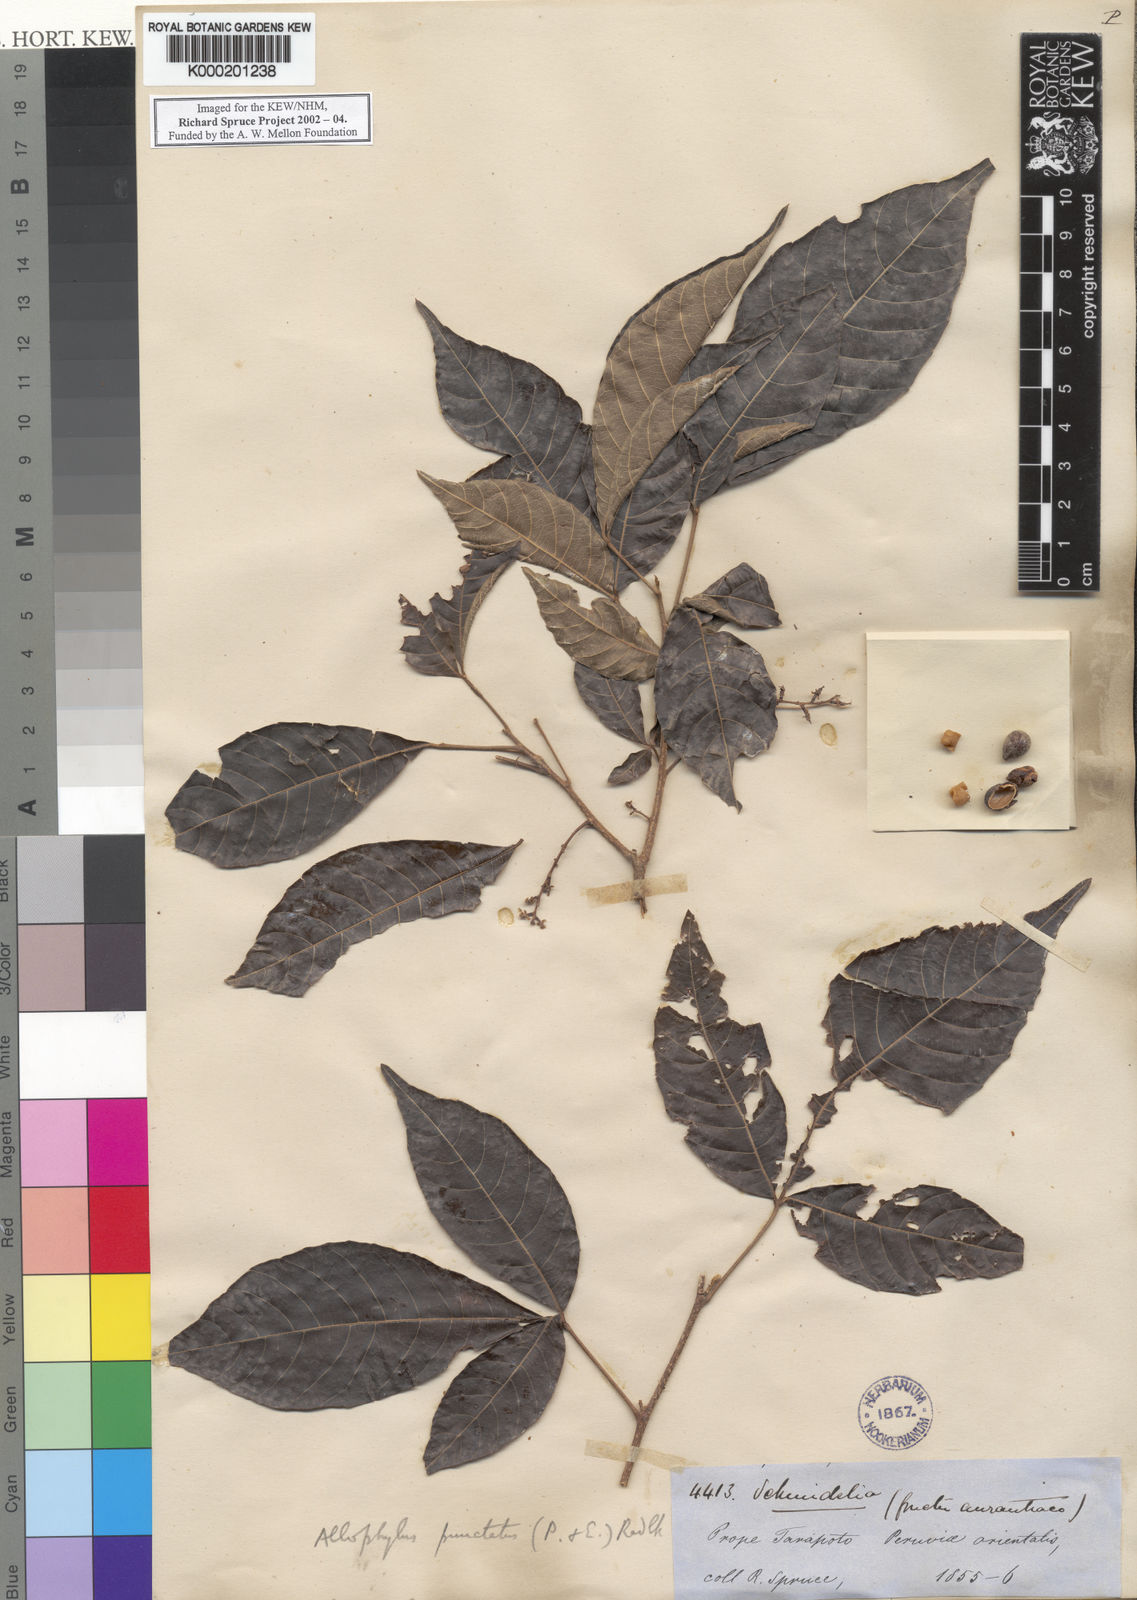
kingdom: Plantae
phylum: Tracheophyta
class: Magnoliopsida
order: Sapindales
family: Sapindaceae
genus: Allophylus
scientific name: Allophylus punctatus
